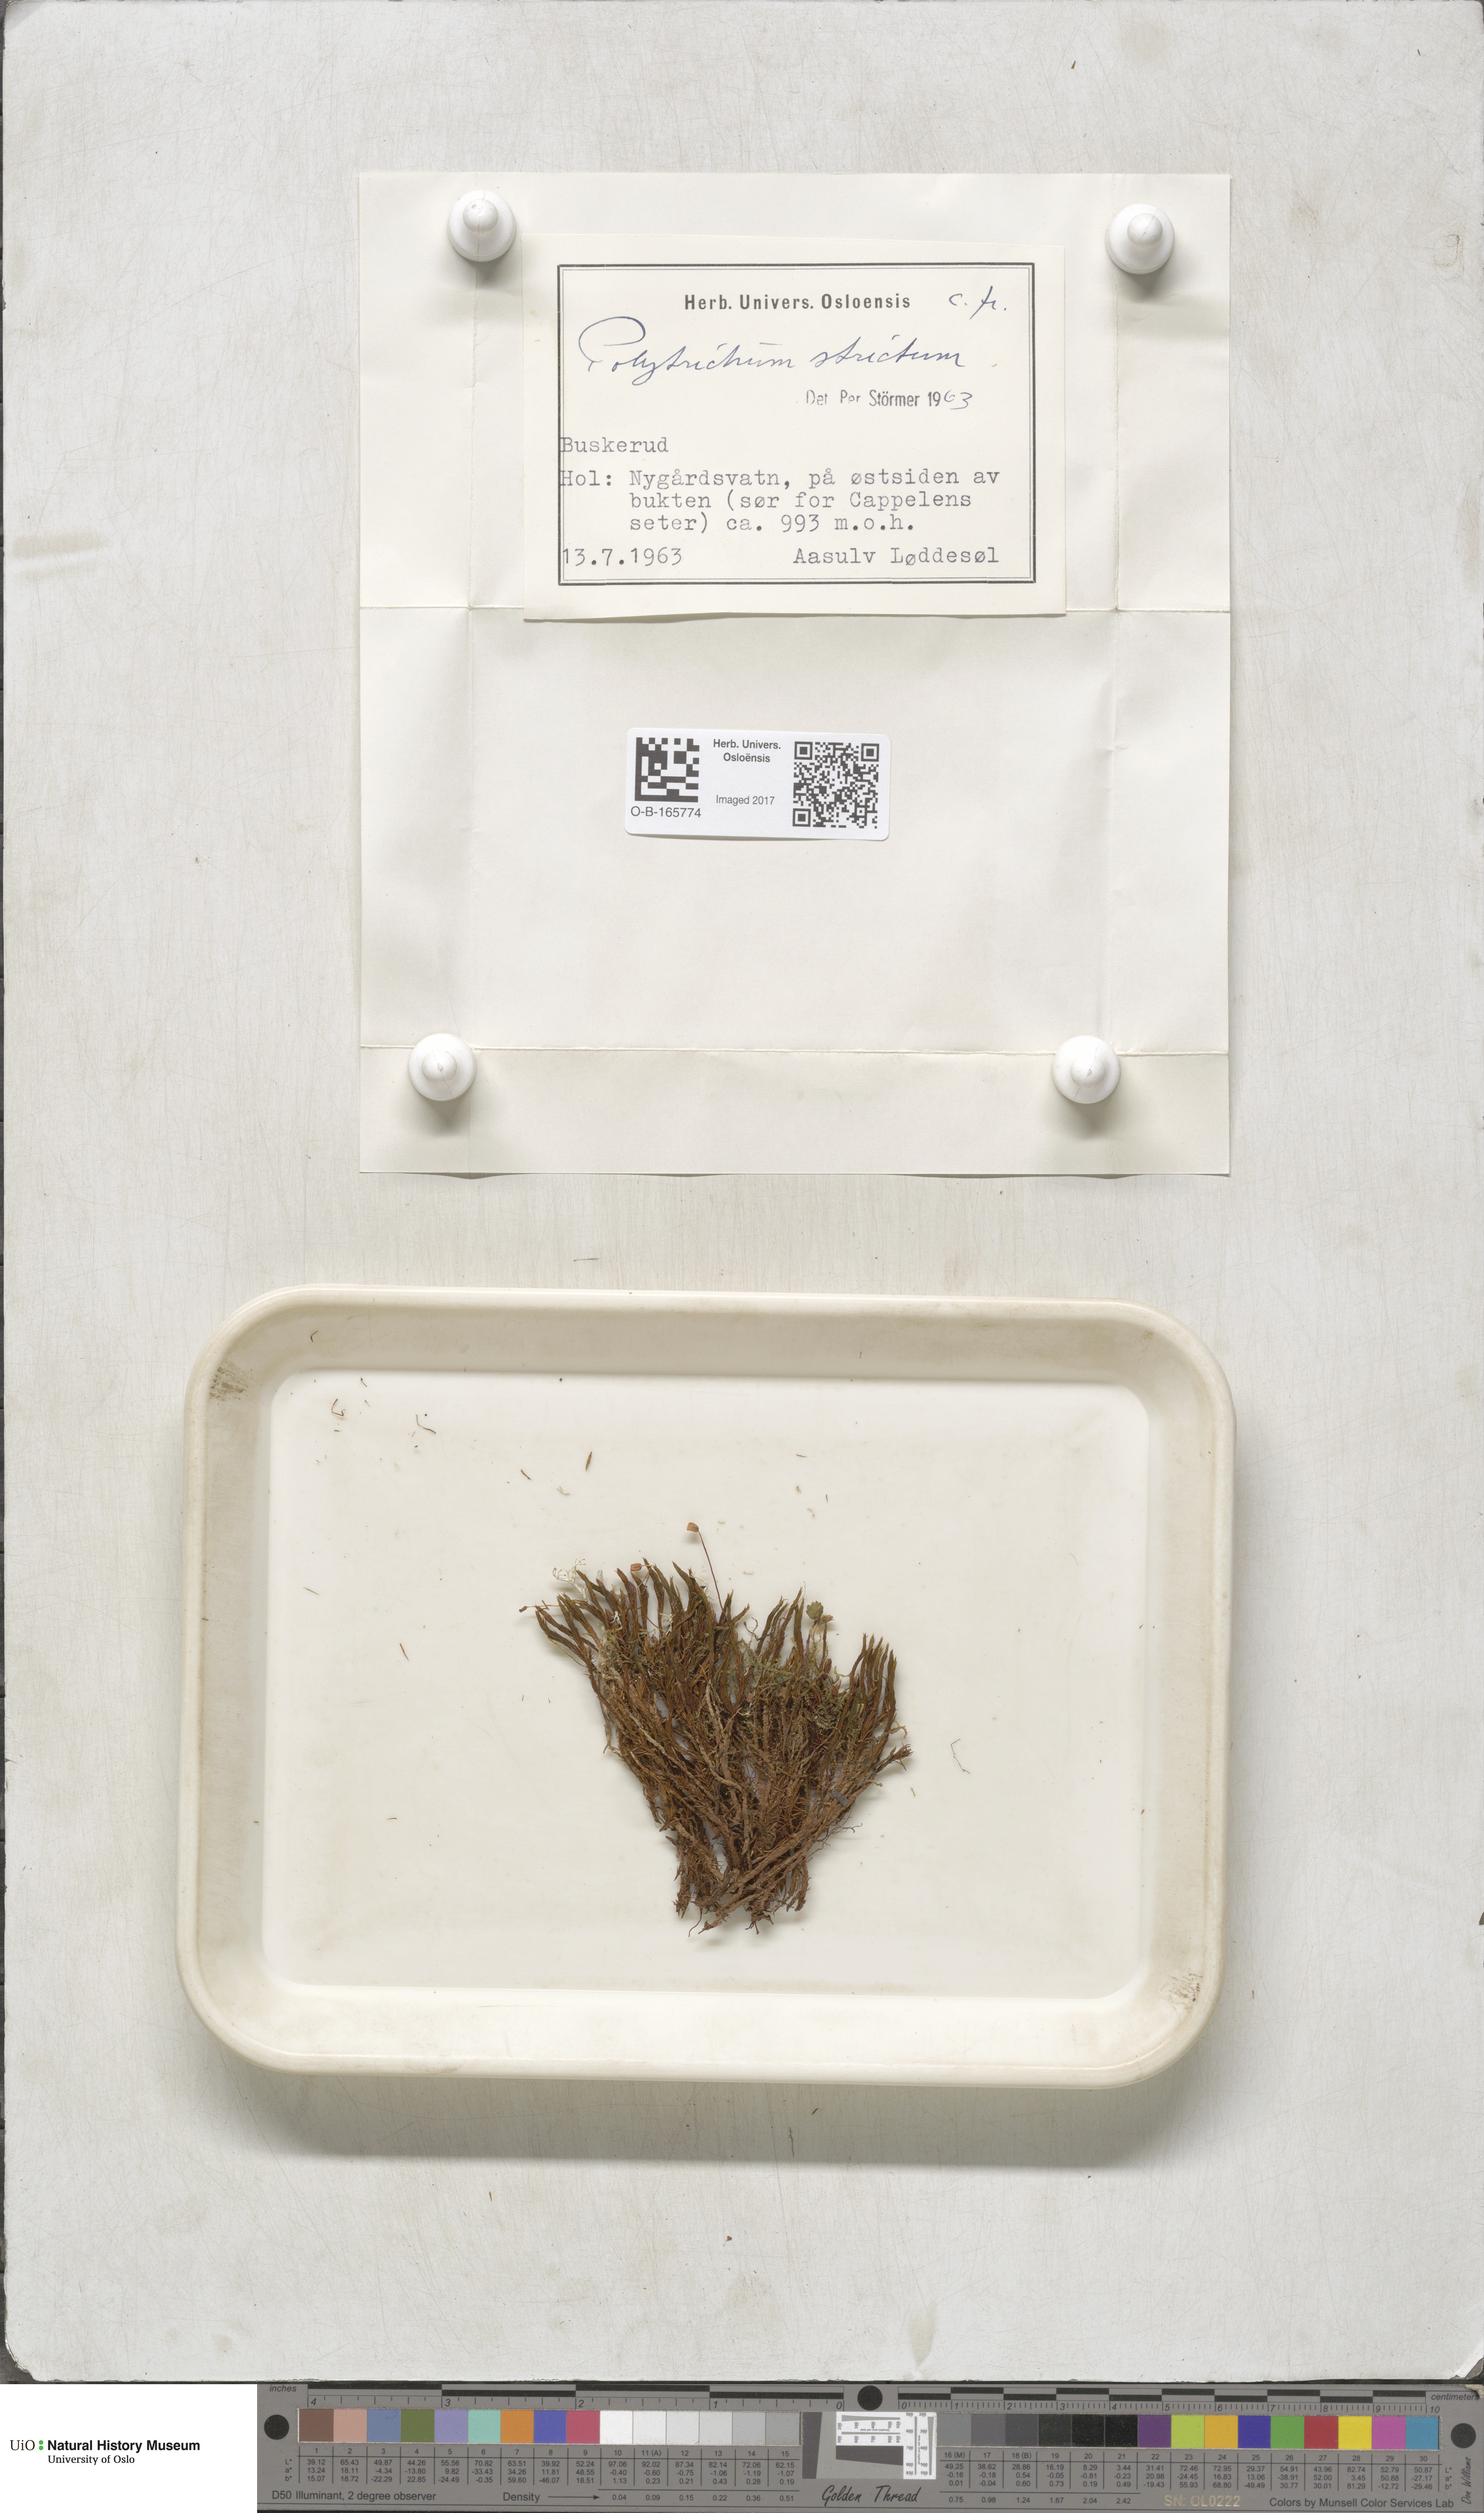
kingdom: Plantae
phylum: Bryophyta
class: Polytrichopsida
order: Polytrichales
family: Polytrichaceae
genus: Polytrichum
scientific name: Polytrichum strictum
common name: Bog haircap moss
